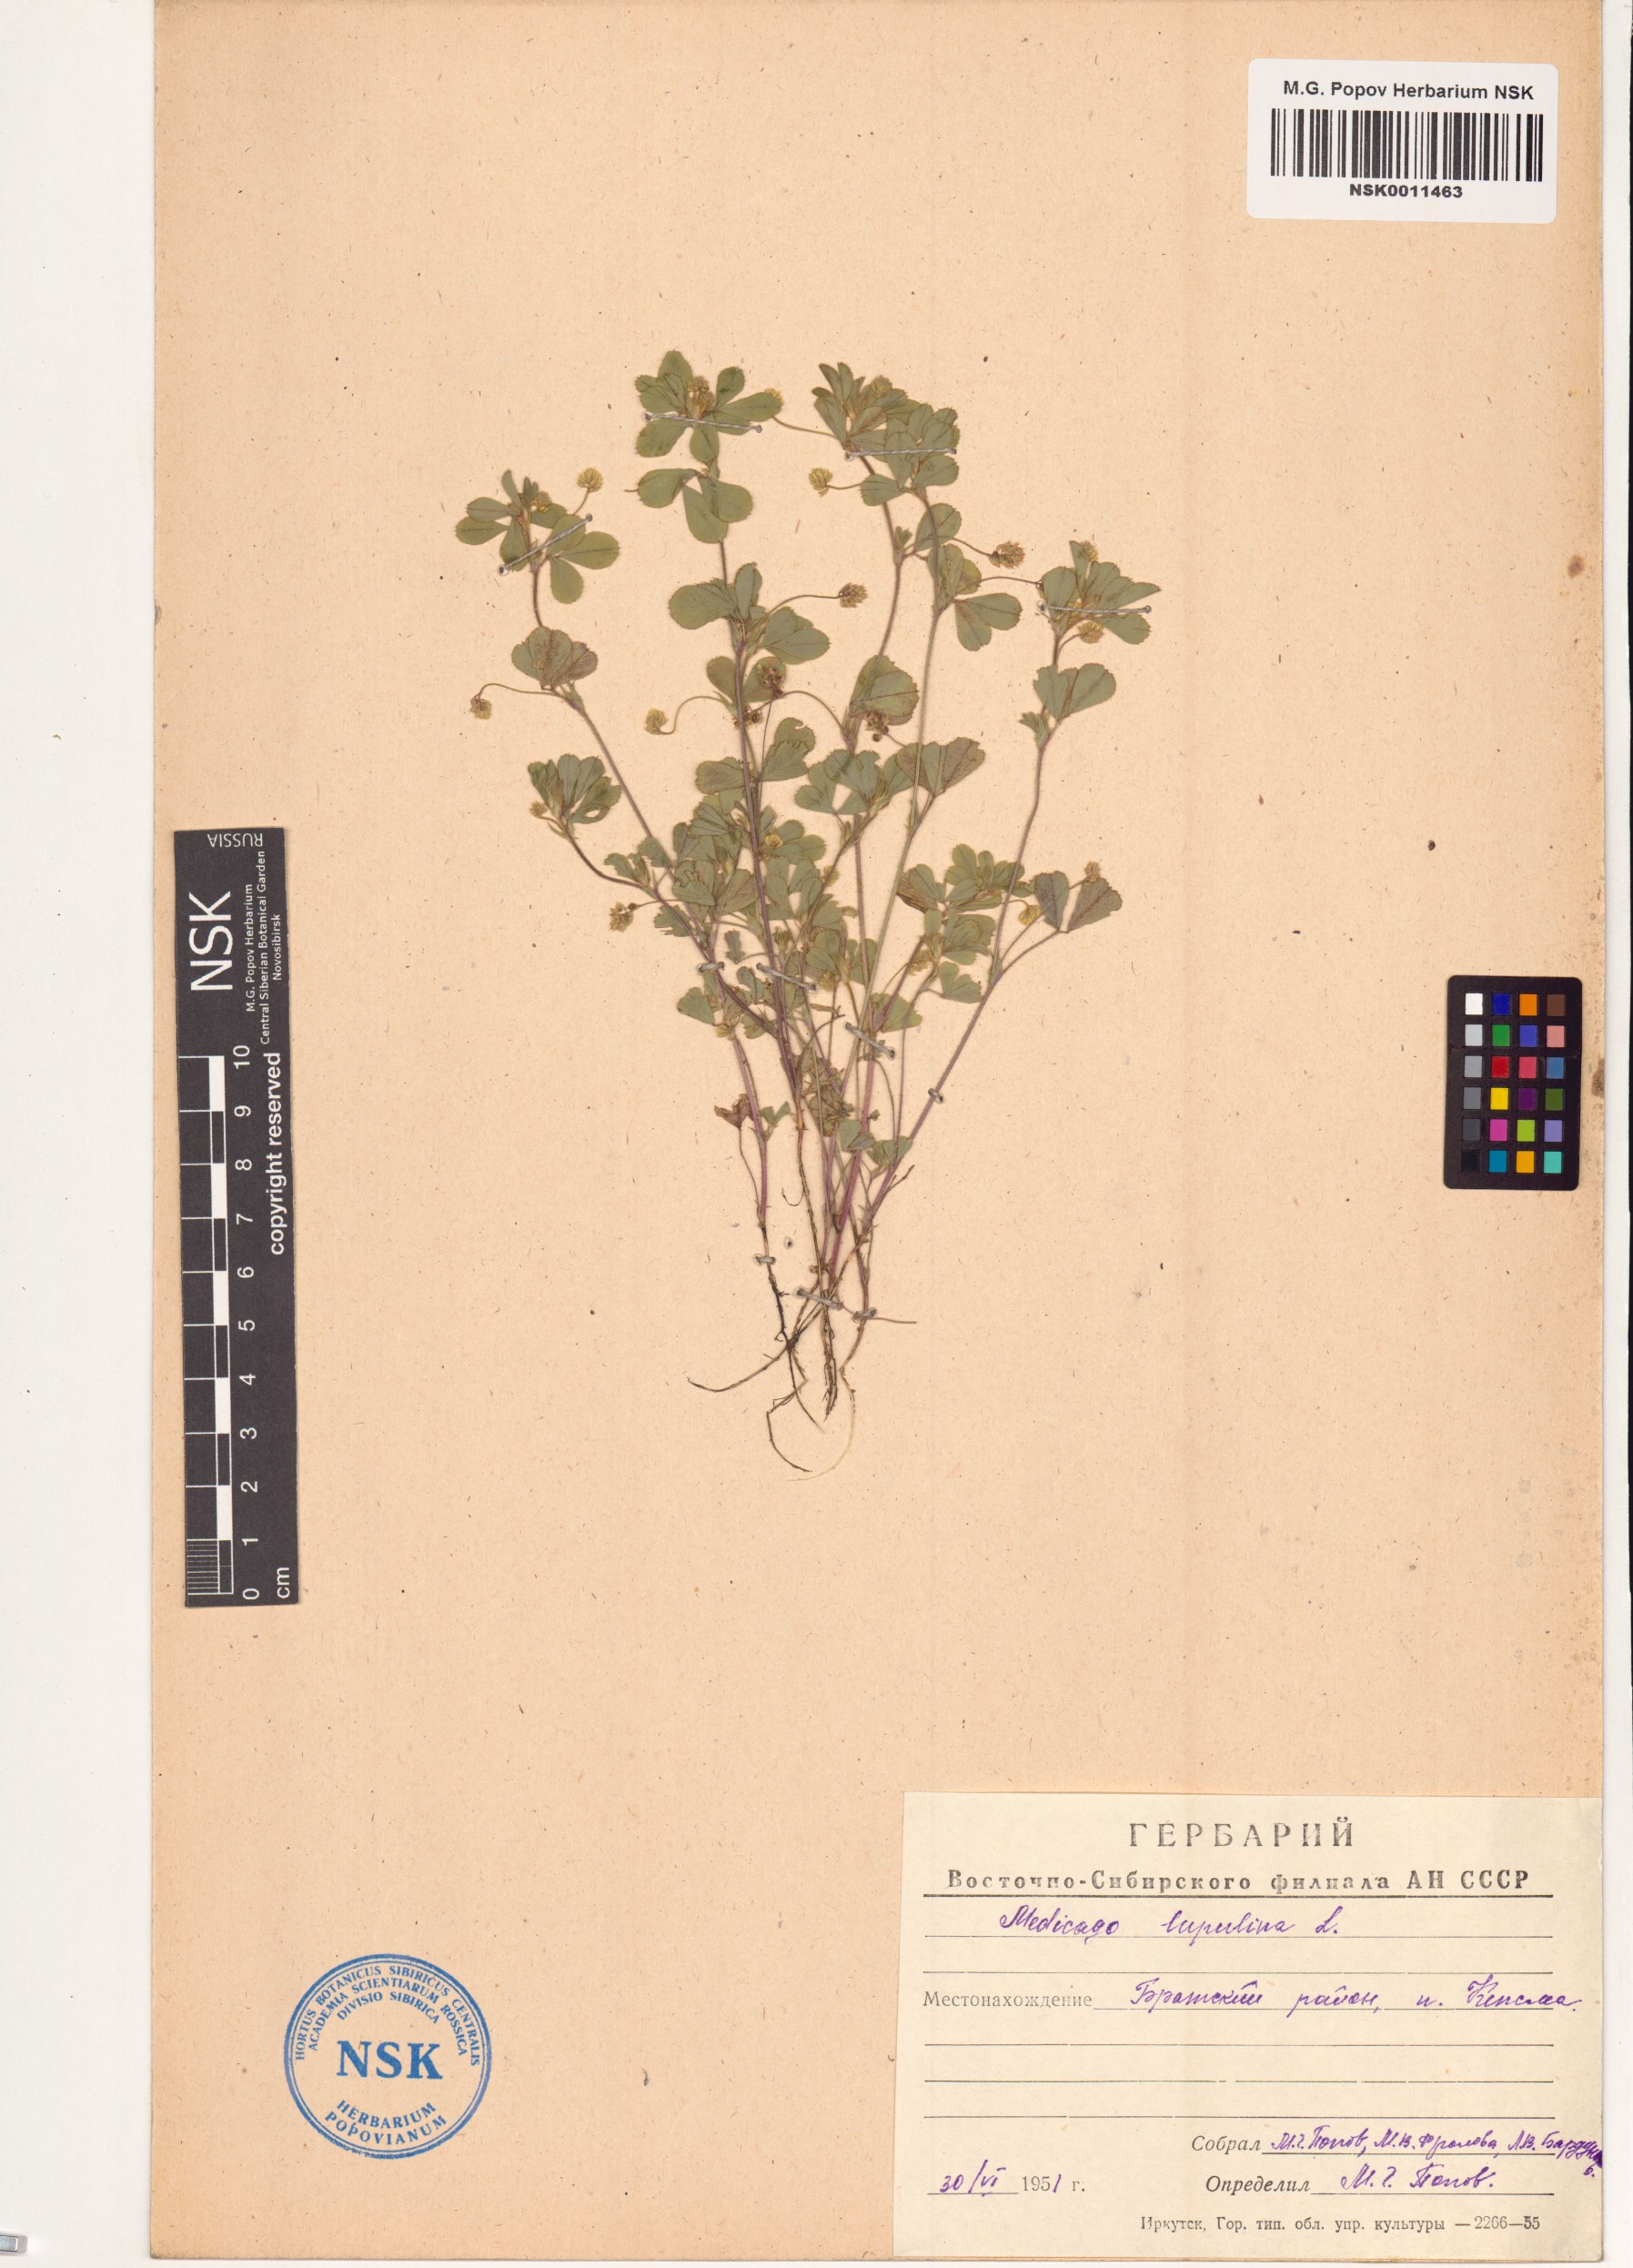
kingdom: Plantae
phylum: Tracheophyta
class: Magnoliopsida
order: Fabales
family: Fabaceae
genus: Medicago
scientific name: Medicago lupulina
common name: Black medick
